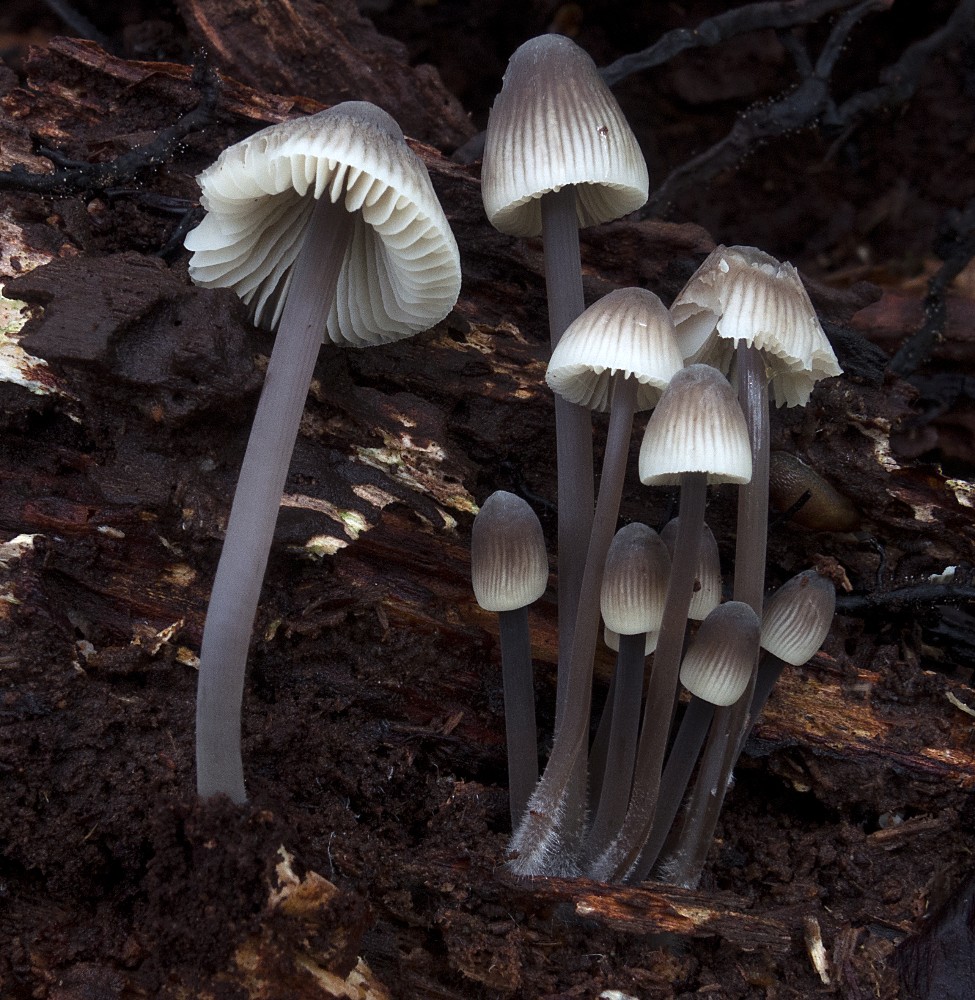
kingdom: Fungi
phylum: Basidiomycota
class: Agaricomycetes
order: Agaricales
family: Mycenaceae
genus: Mycena
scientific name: Mycena arcangeliana
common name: oliven-huesvamp
